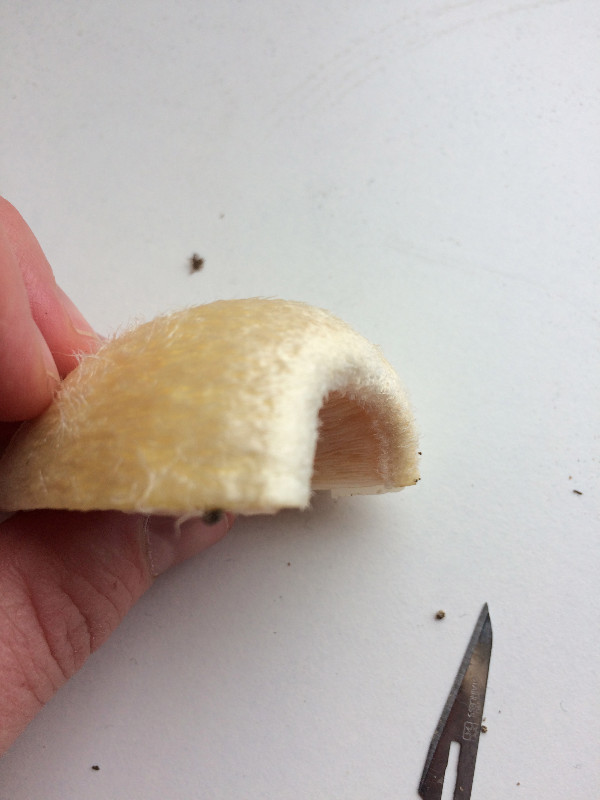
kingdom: Fungi
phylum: Basidiomycota
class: Agaricomycetes
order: Agaricales
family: Pluteaceae
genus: Volvariella
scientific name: Volvariella bombycina
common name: silkehåret posesvamp
